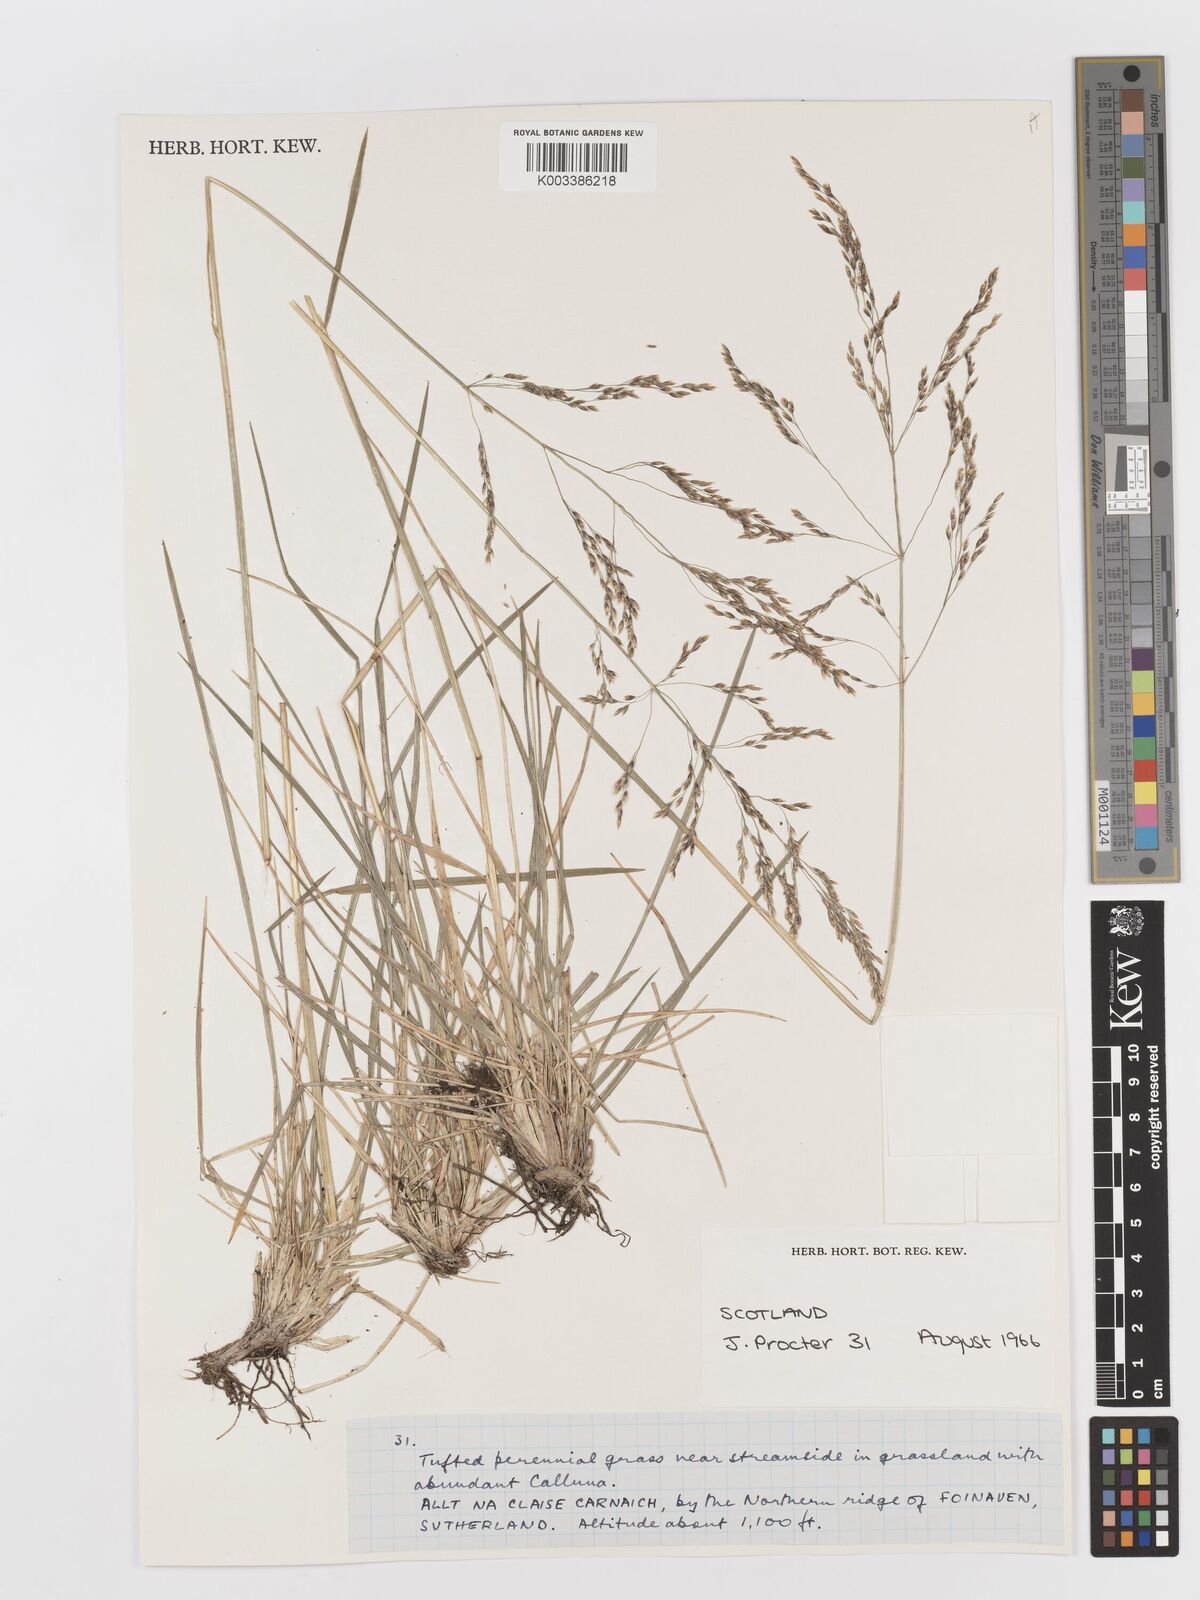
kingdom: Plantae
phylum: Tracheophyta
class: Liliopsida
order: Poales
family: Poaceae
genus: Deschampsia
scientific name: Deschampsia
